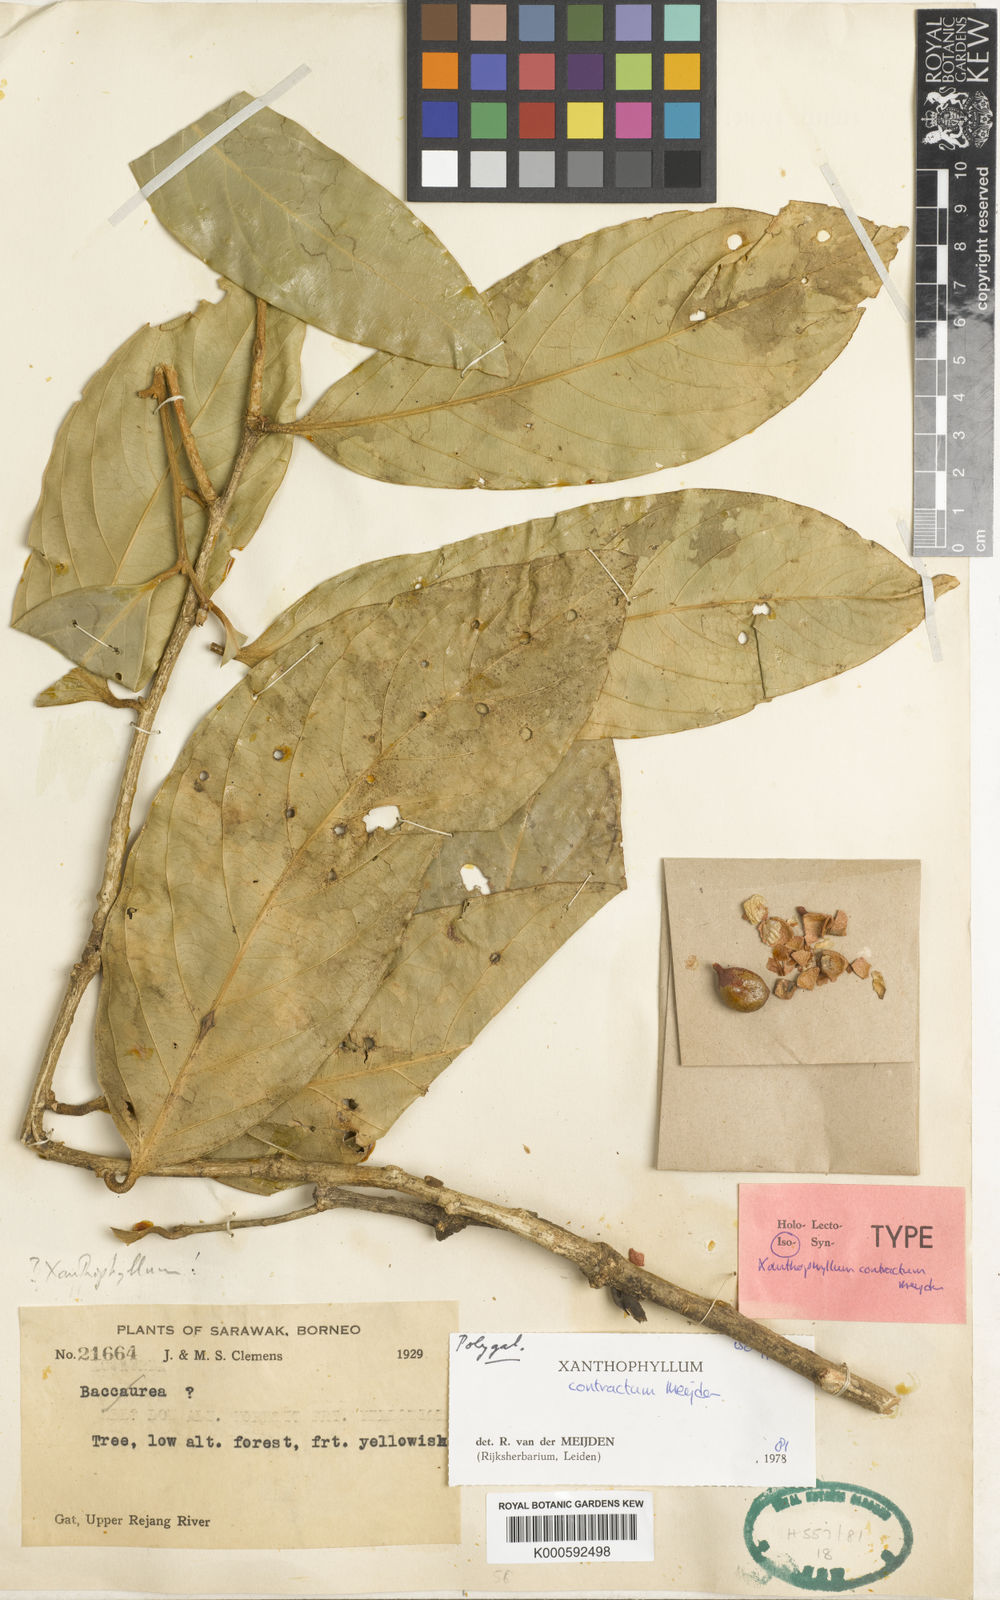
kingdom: Plantae
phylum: Tracheophyta
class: Magnoliopsida
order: Fabales
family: Polygalaceae
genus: Xanthophyllum
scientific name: Xanthophyllum contractum
